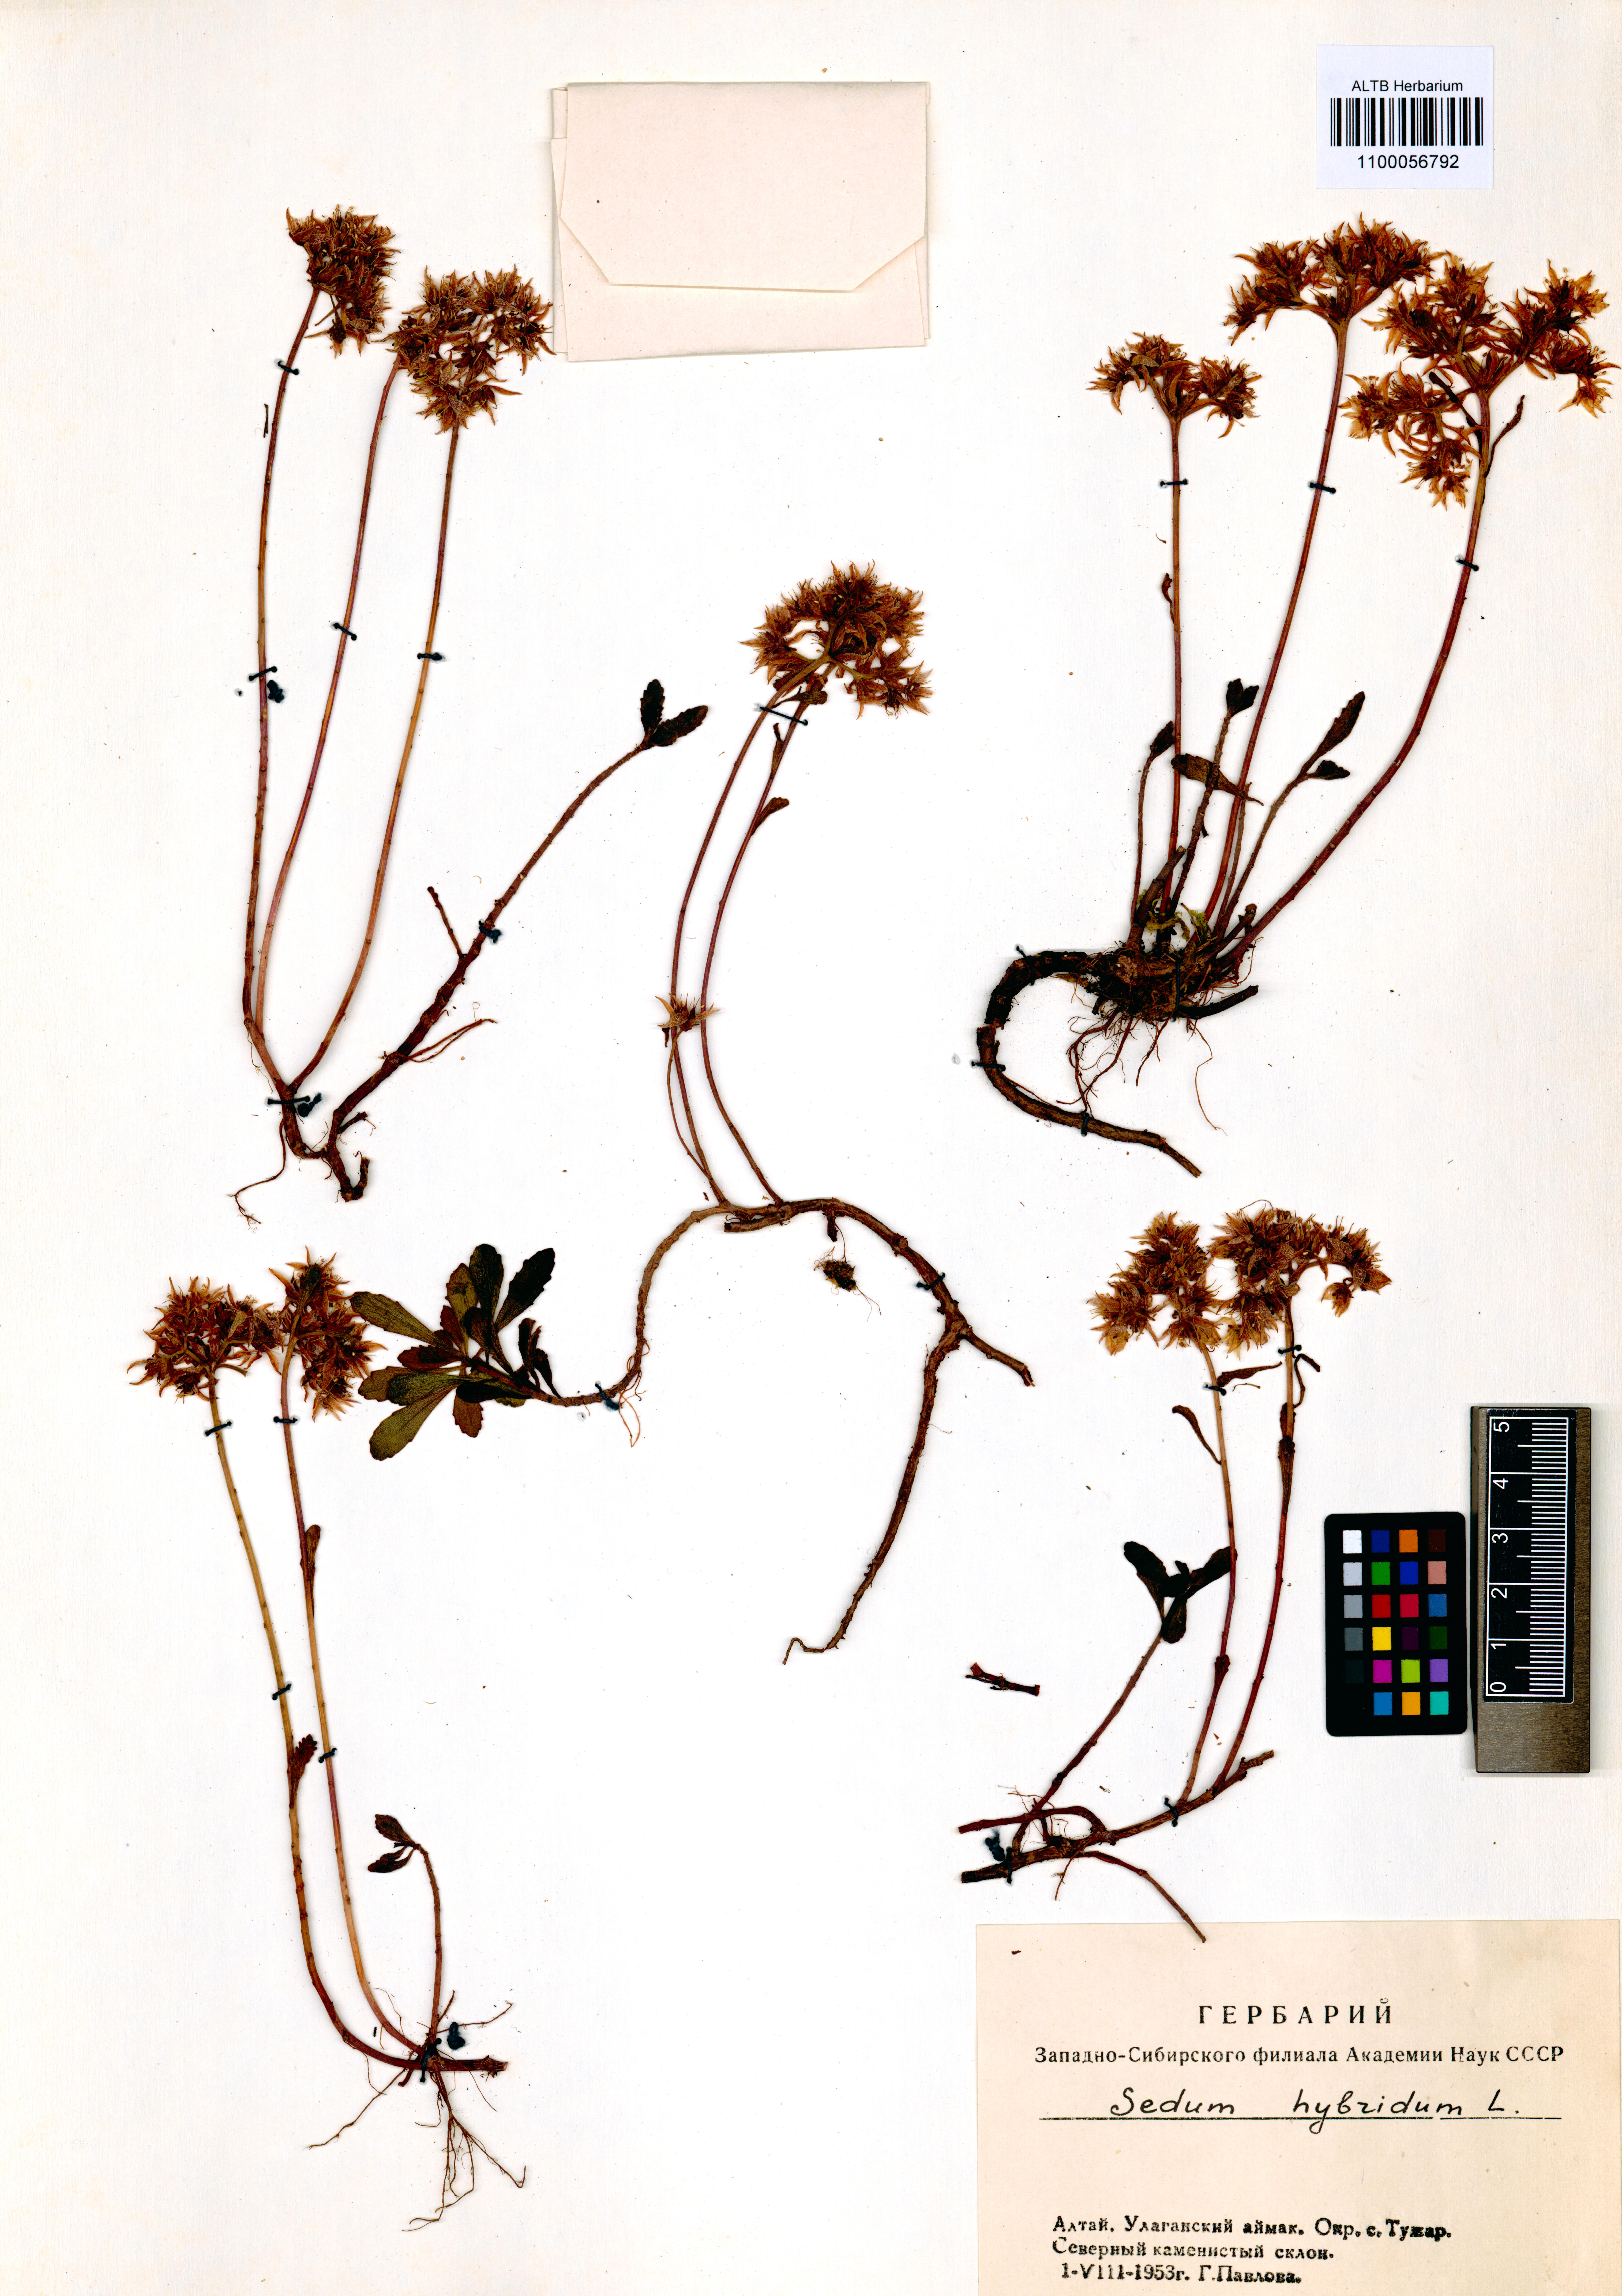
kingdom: Plantae
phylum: Tracheophyta
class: Magnoliopsida
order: Saxifragales
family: Crassulaceae
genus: Phedimus
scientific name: Phedimus hybridus
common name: Hybrid stonecrop
